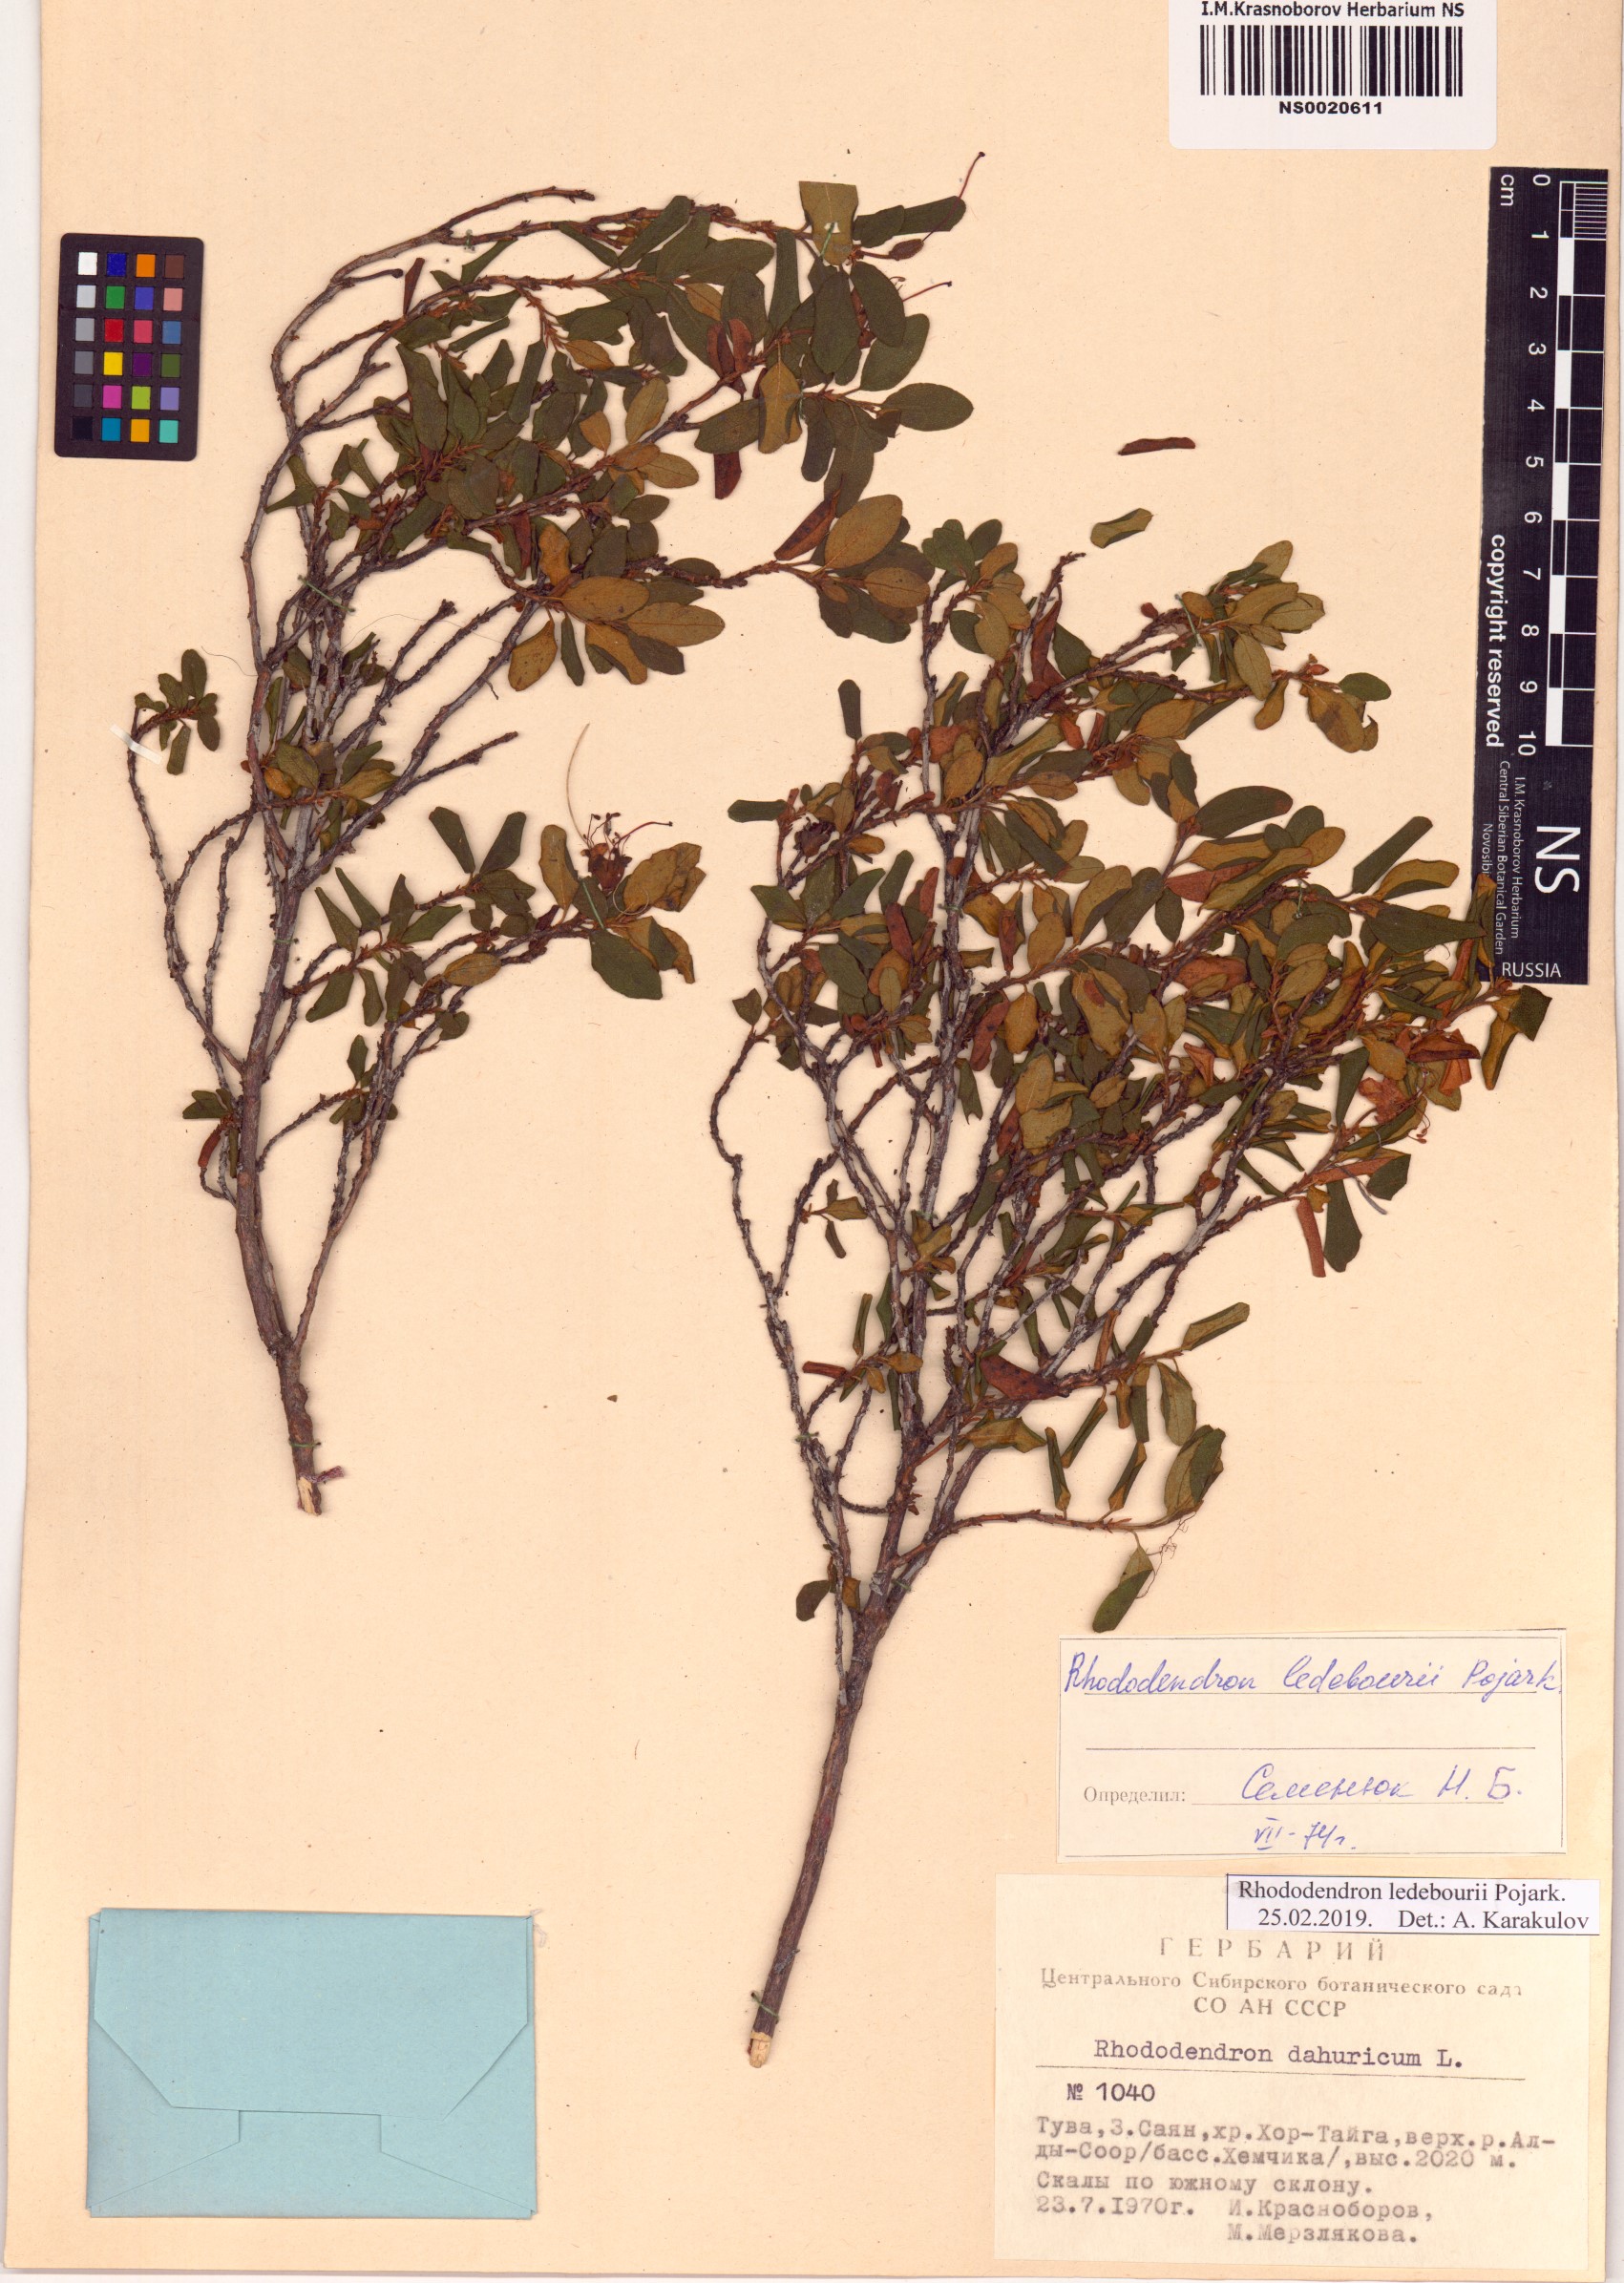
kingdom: Plantae
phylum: Tracheophyta
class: Magnoliopsida
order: Ericales
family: Ericaceae
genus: Rhododendron
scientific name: Rhododendron dauricum
